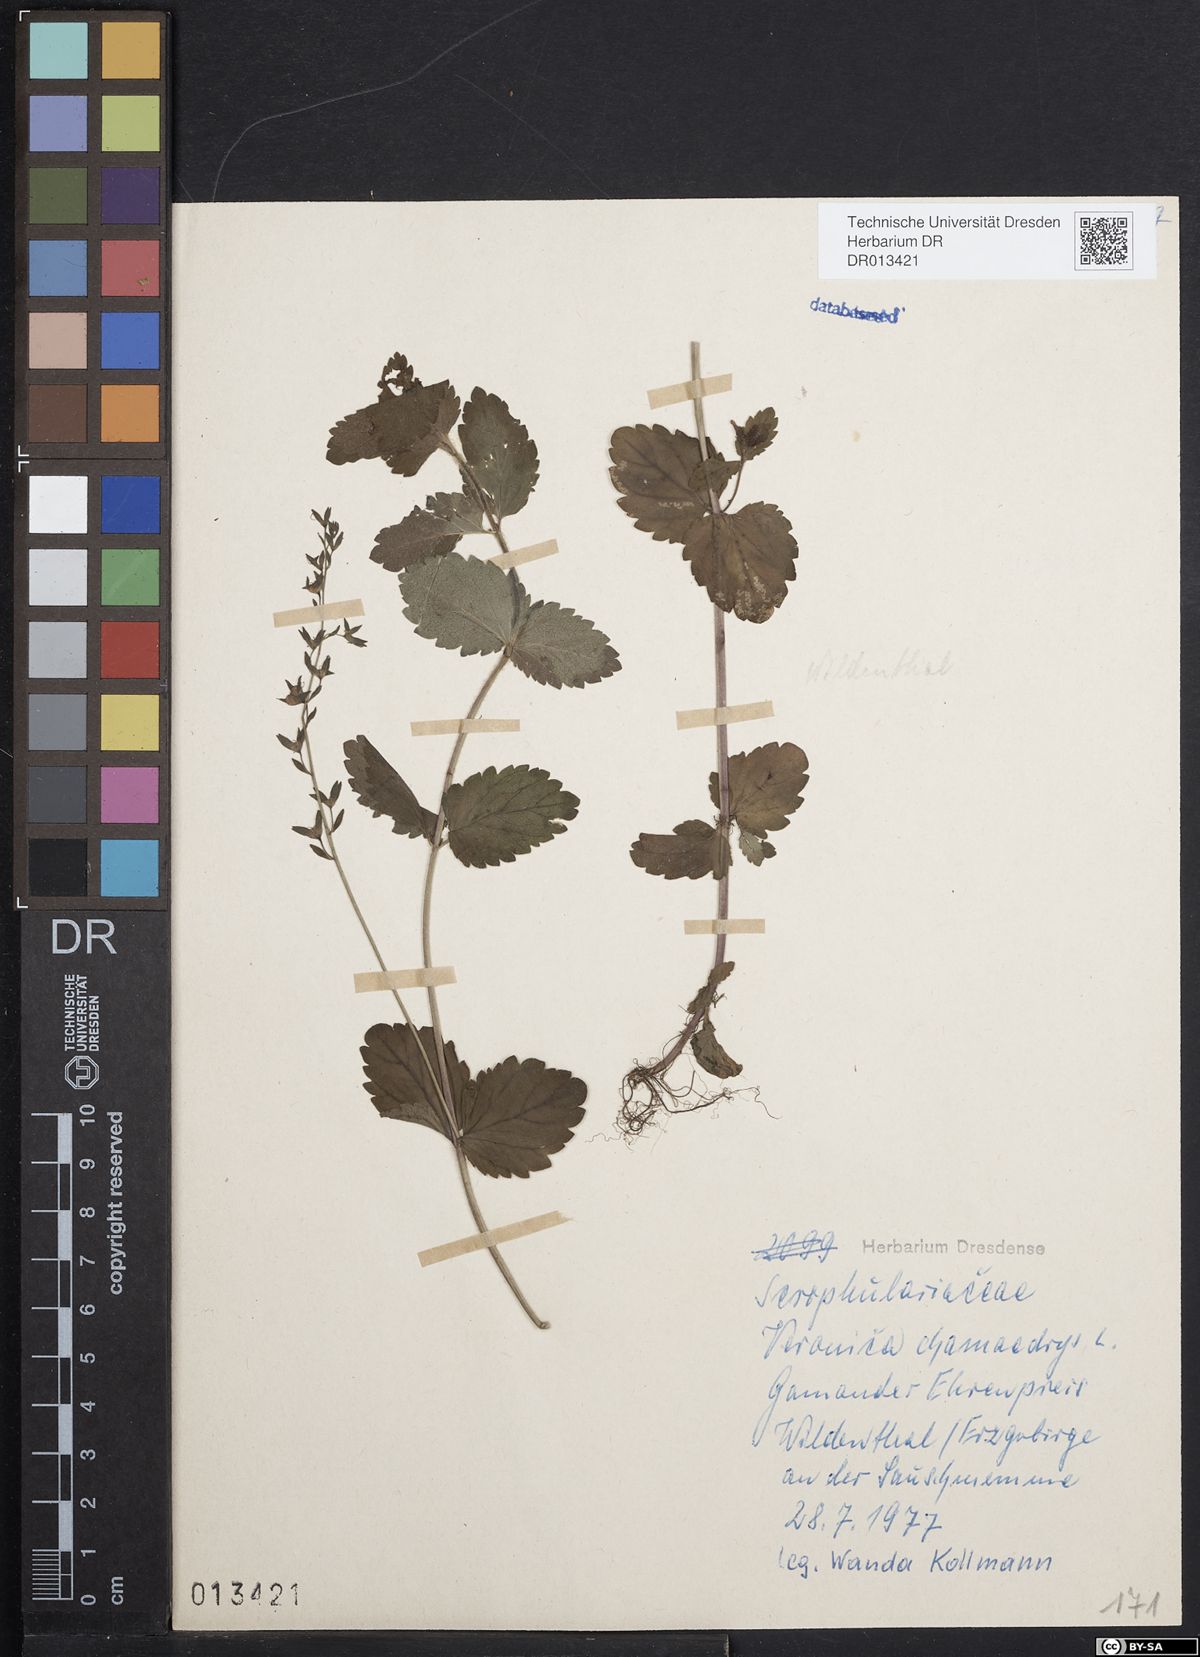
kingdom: Plantae
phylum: Tracheophyta
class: Magnoliopsida
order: Lamiales
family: Plantaginaceae
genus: Veronica
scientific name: Veronica chamaedrys
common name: Germander speedwell
